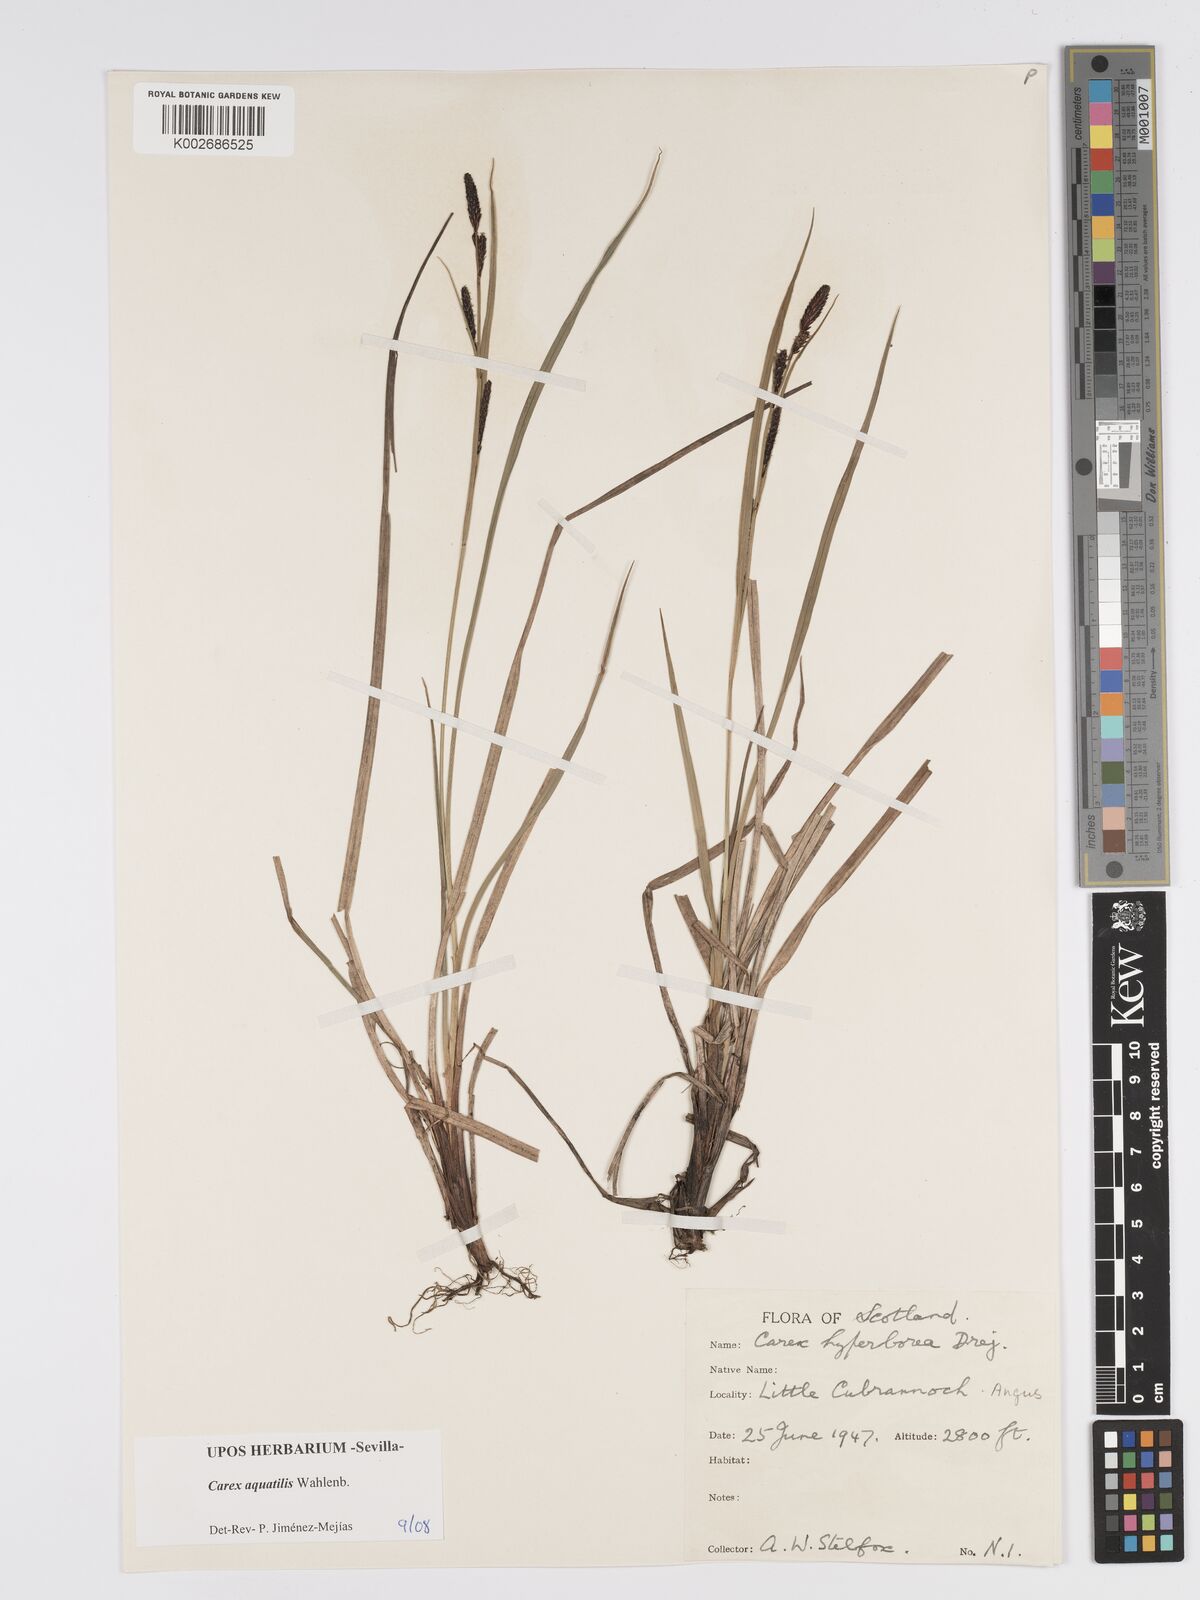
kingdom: Plantae
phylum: Tracheophyta
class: Liliopsida
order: Poales
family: Cyperaceae
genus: Carex
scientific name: Carex aquatilis
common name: Water sedge
